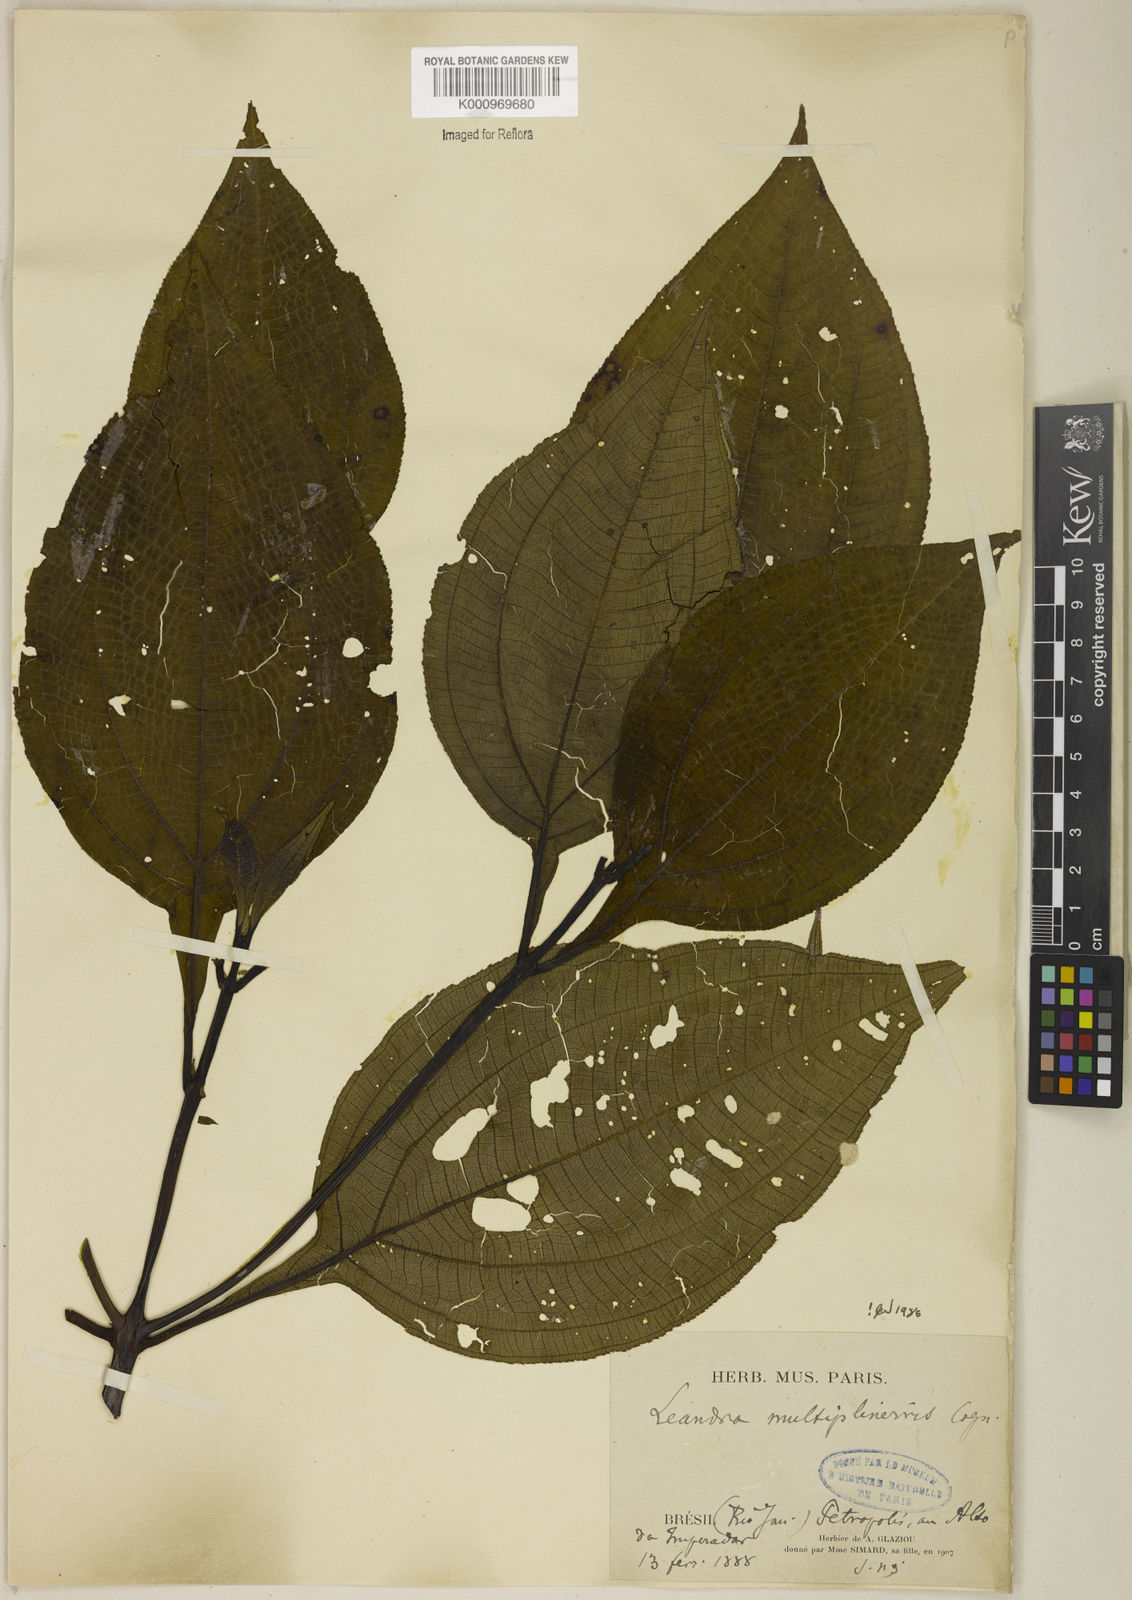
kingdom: Plantae
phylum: Tracheophyta
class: Magnoliopsida
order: Myrtales
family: Melastomataceae
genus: Miconia
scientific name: Miconia oocarpa
